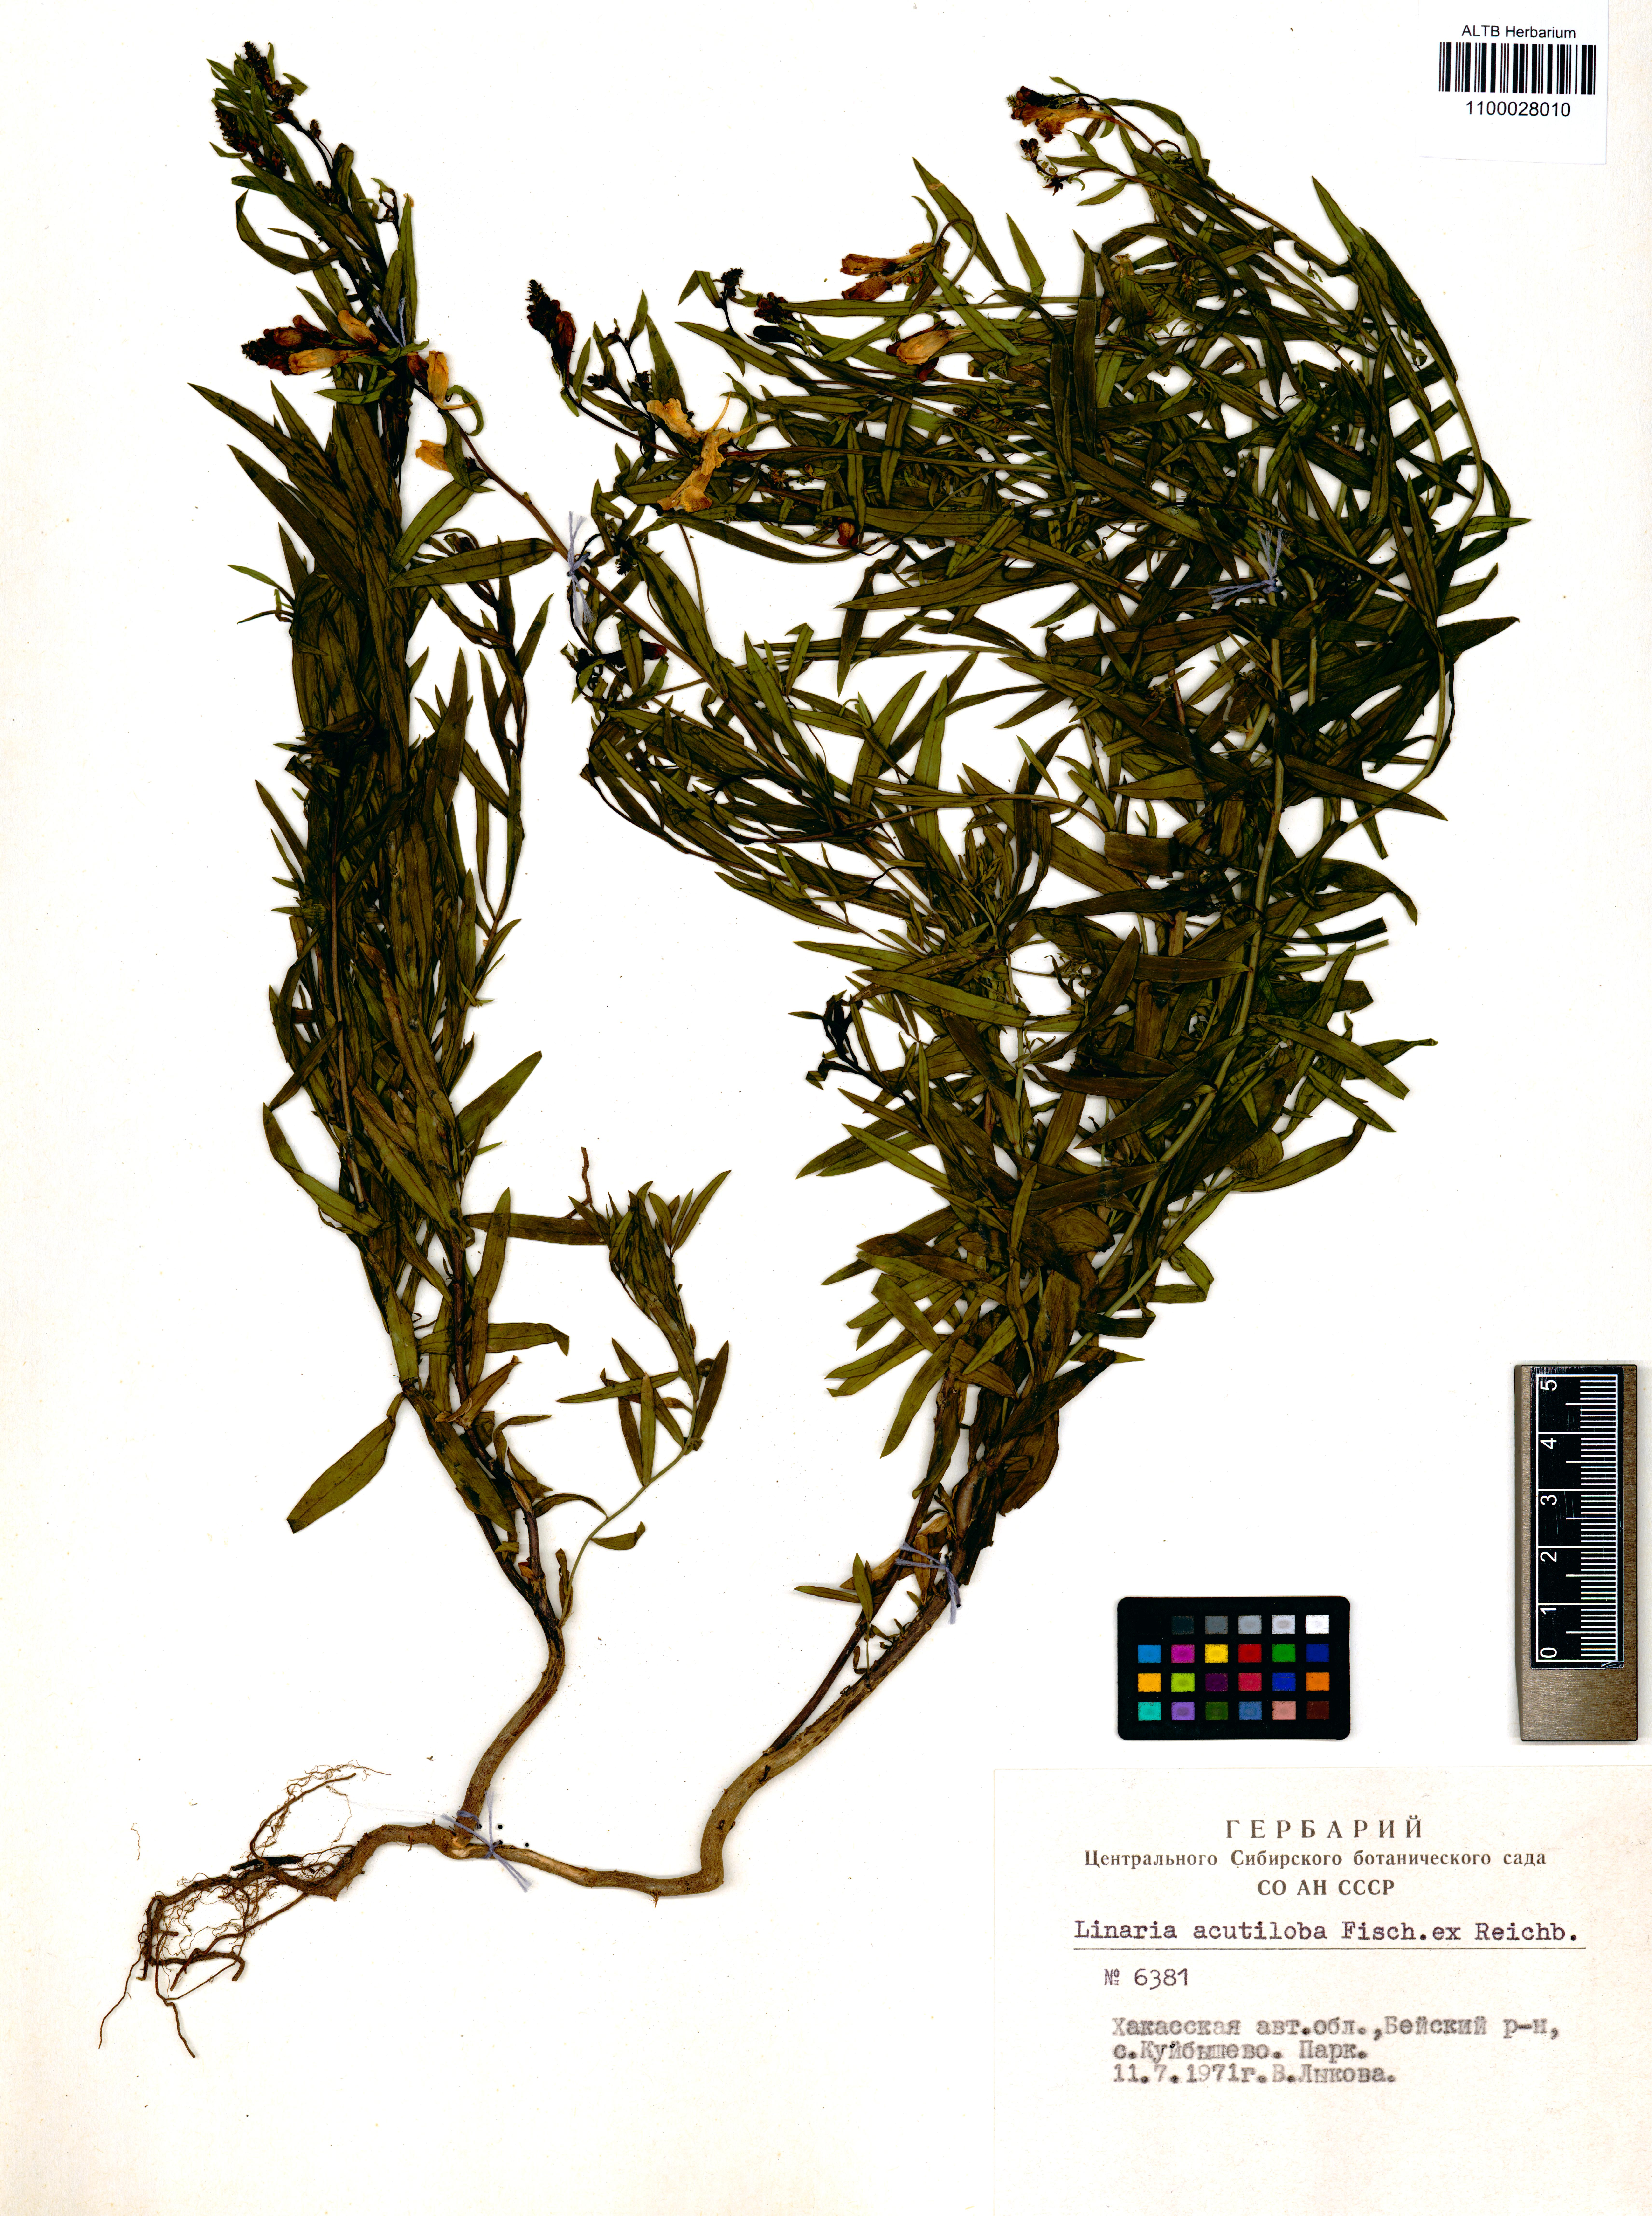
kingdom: Plantae
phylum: Tracheophyta
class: Magnoliopsida
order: Lamiales
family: Plantaginaceae
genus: Linaria
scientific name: Linaria acutiloba
